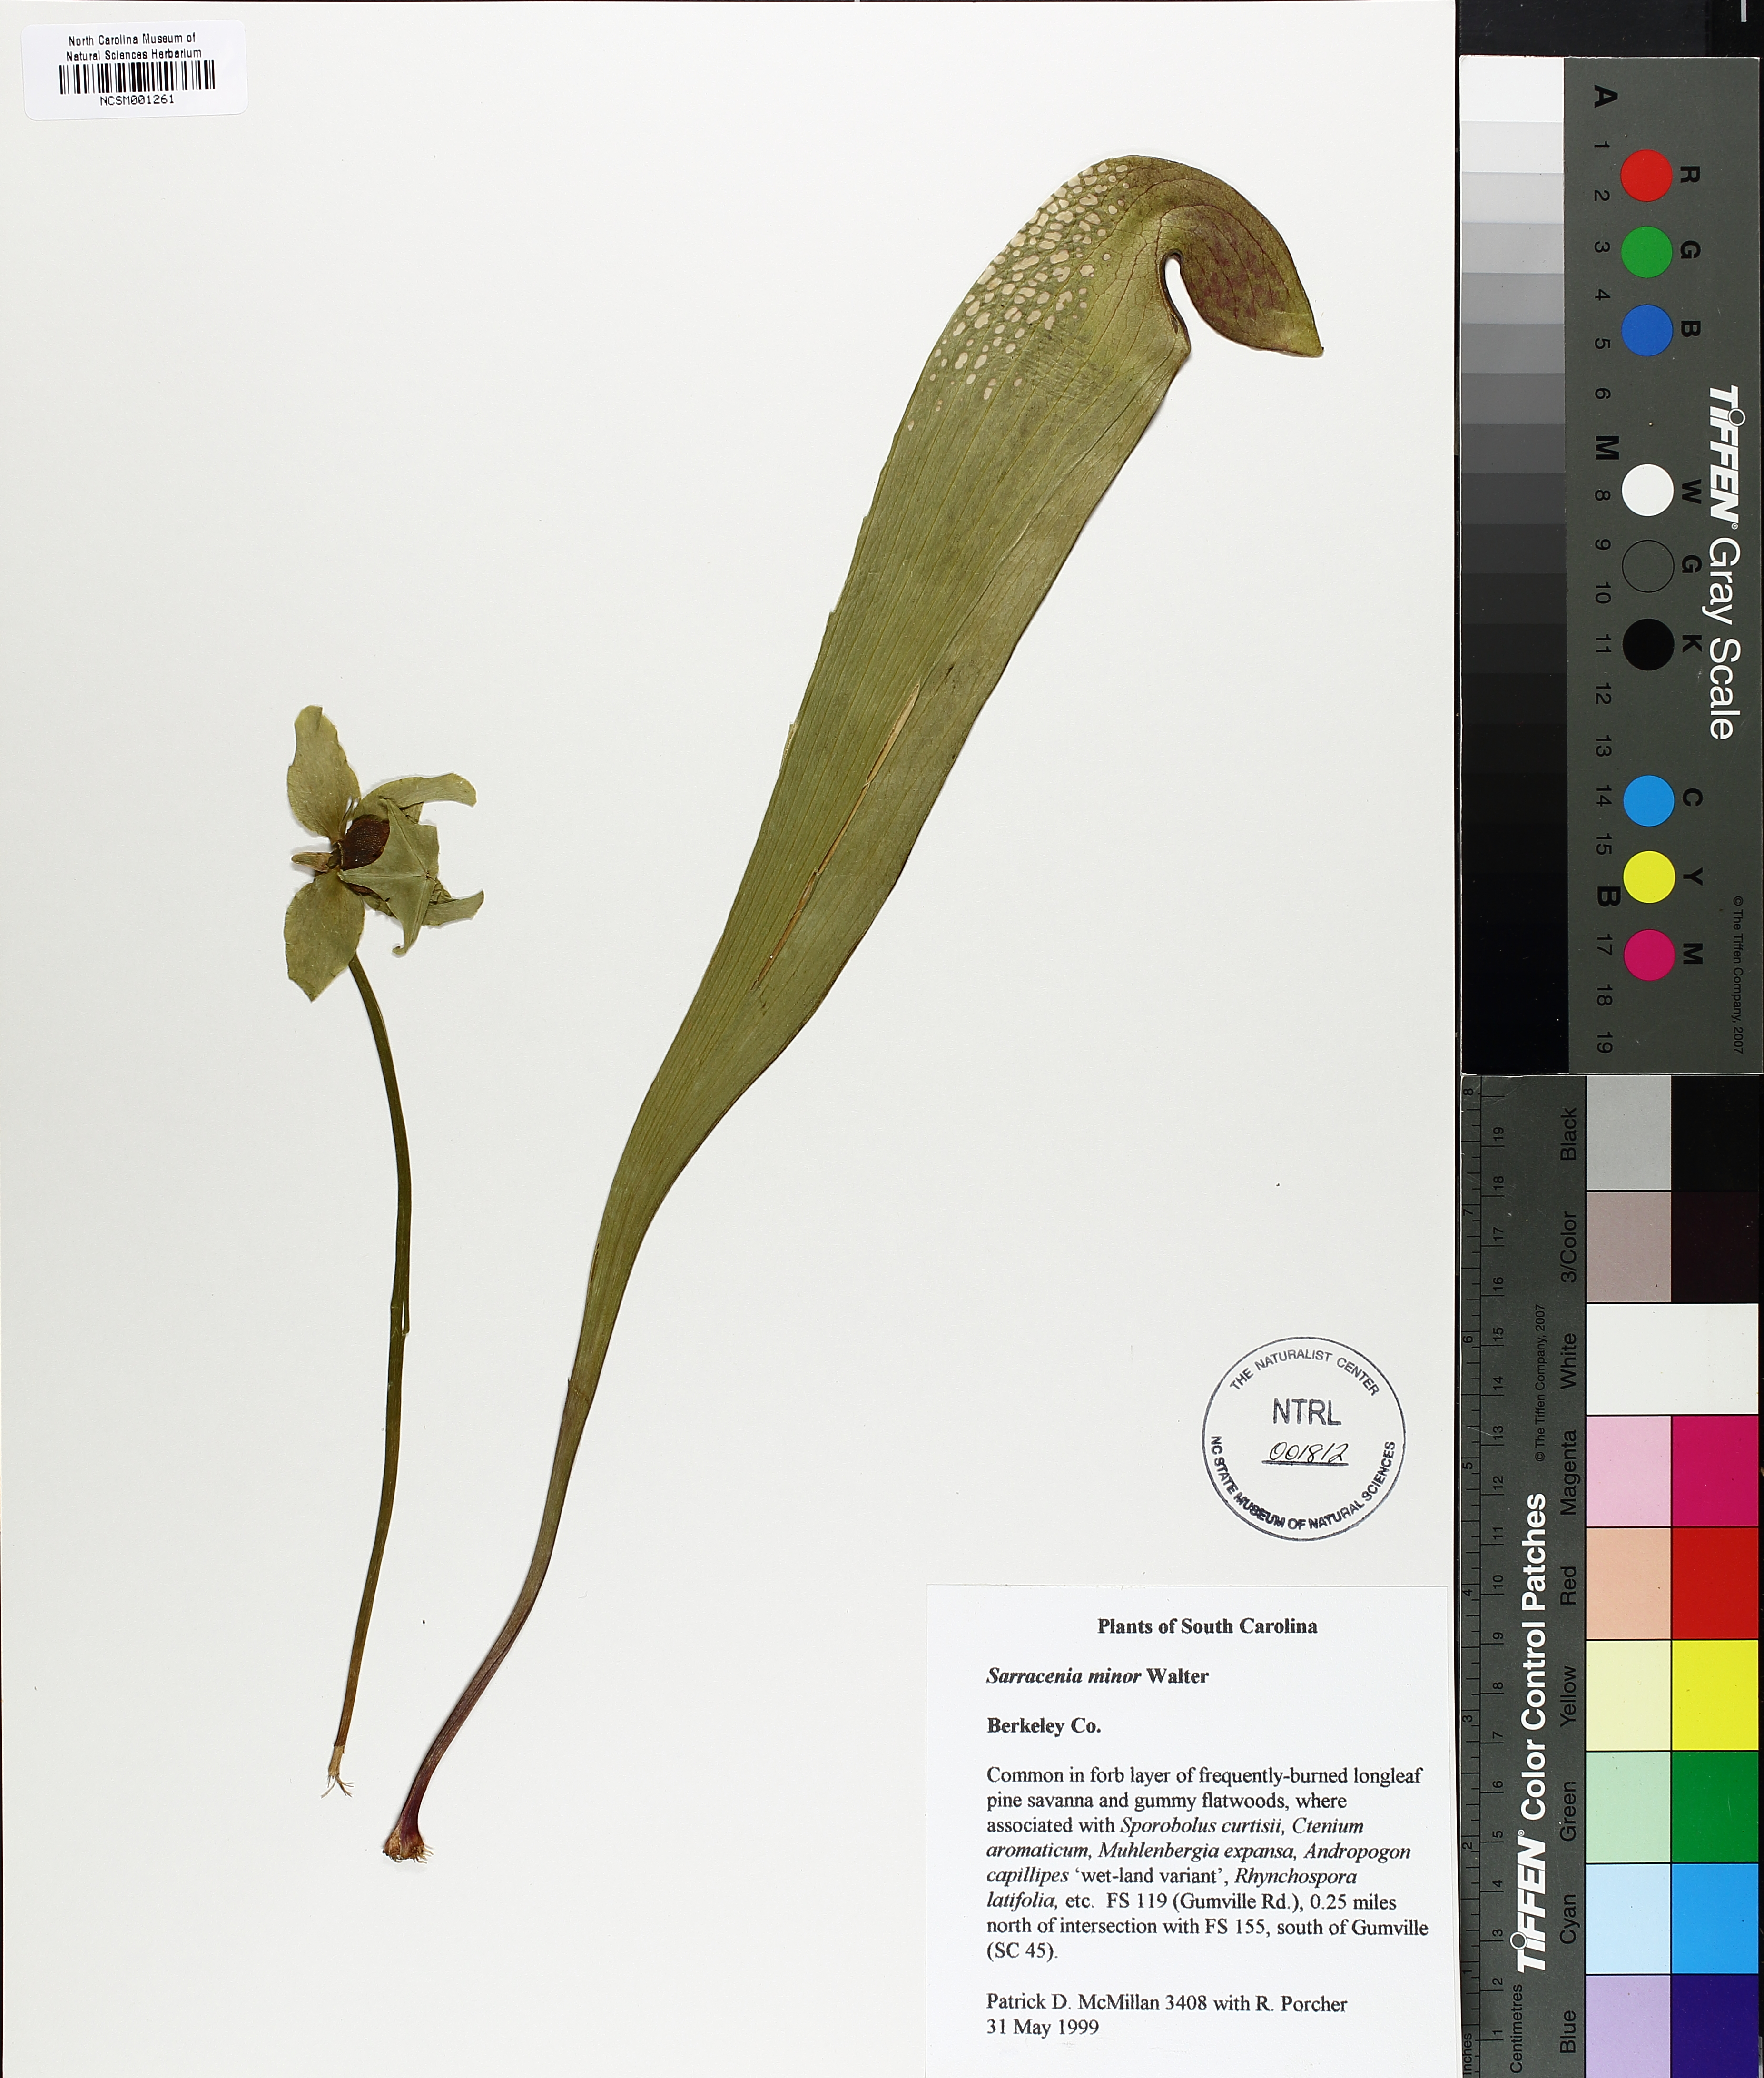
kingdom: Plantae
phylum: Tracheophyta
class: Magnoliopsida
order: Ericales
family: Sarraceniaceae
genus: Sarracenia
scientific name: Sarracenia minor
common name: Rainhat-trumpet
